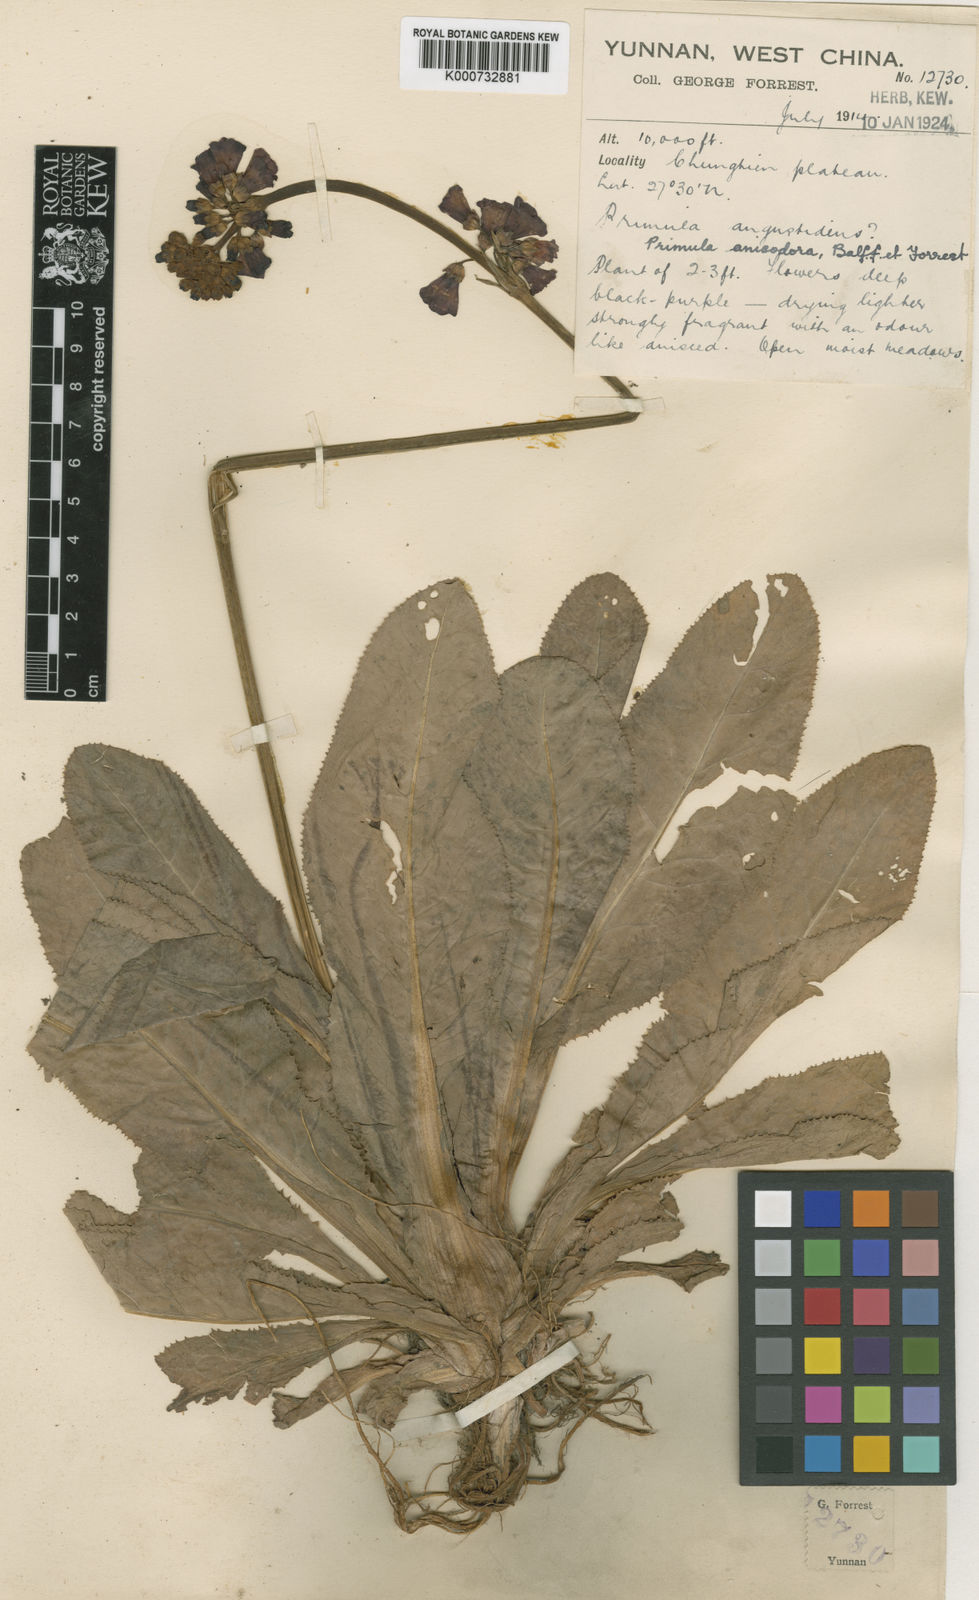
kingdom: Plantae
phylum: Tracheophyta
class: Magnoliopsida
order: Ericales
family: Primulaceae
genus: Primula
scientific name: Primula anisodora
